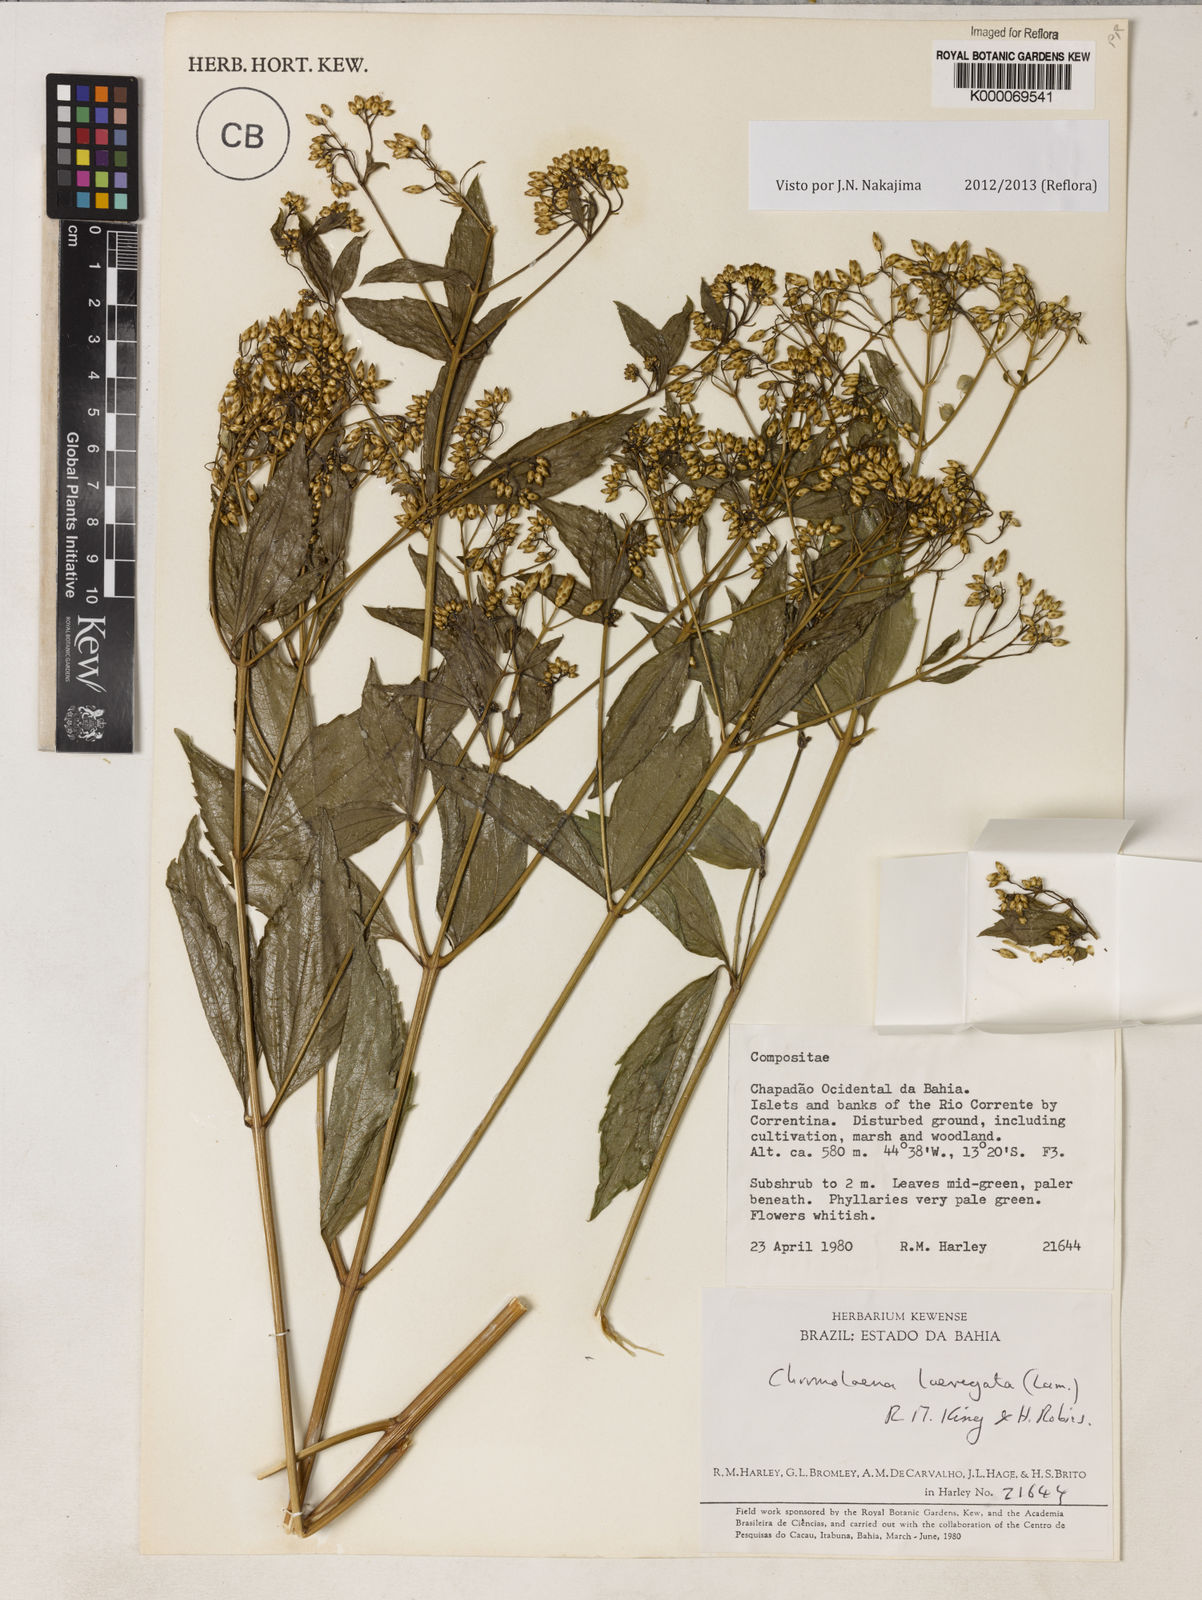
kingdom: Plantae
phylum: Tracheophyta
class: Magnoliopsida
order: Asterales
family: Asteraceae
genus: Chromolaena
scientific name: Chromolaena laevigata
